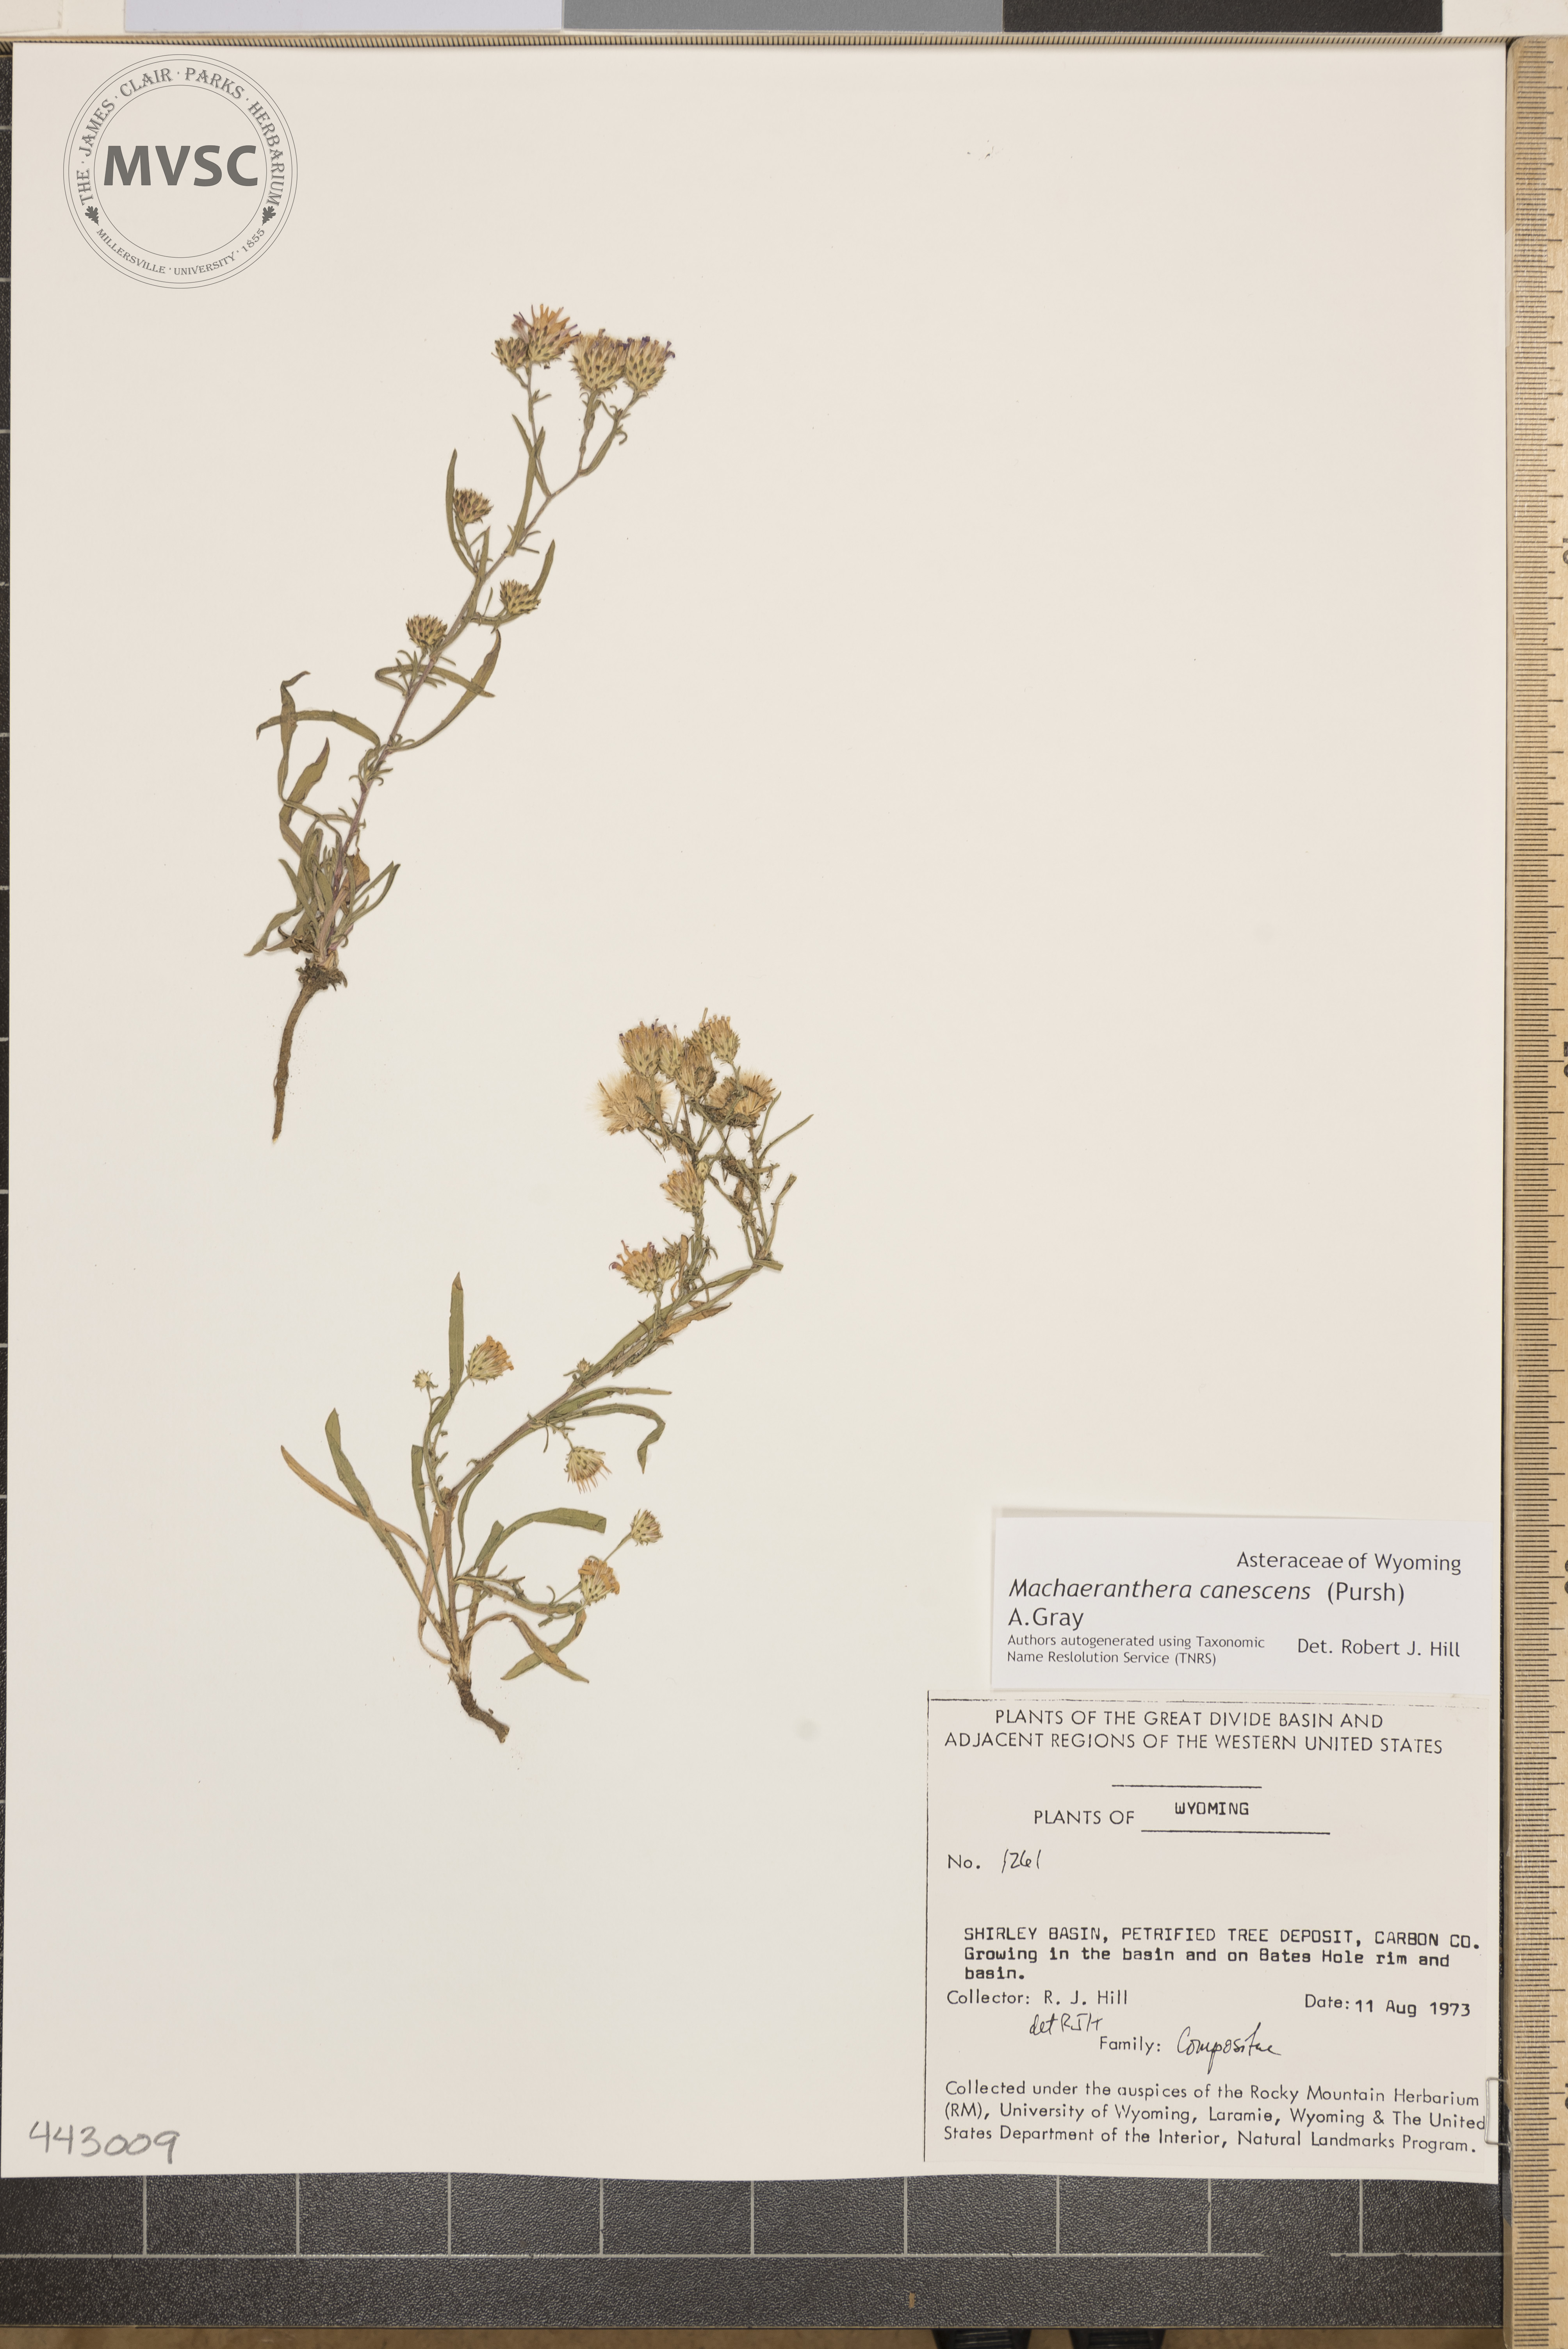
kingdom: Plantae
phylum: Tracheophyta
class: Magnoliopsida
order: Asterales
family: Asteraceae
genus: Dieteria
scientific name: Dieteria canescens
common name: Hoary-aster
